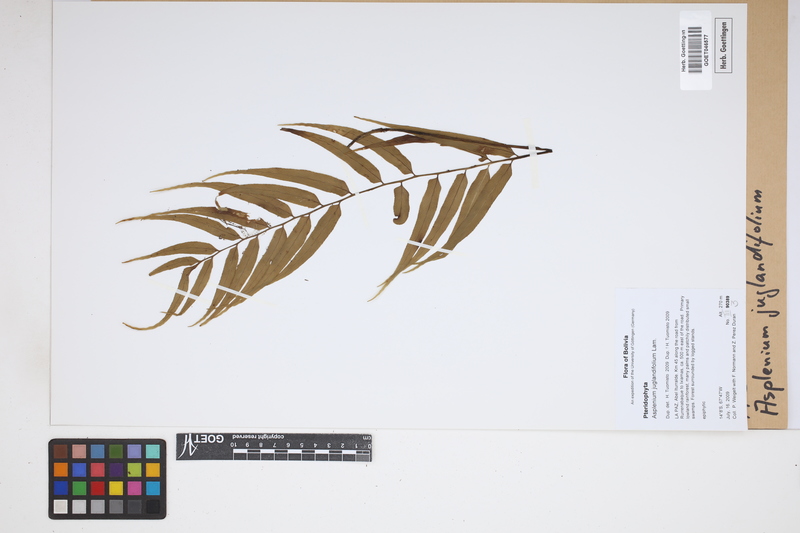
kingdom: Plantae
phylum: Tracheophyta
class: Polypodiopsida
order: Polypodiales
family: Aspleniaceae
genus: Asplenium
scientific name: Asplenium juglandifolium
